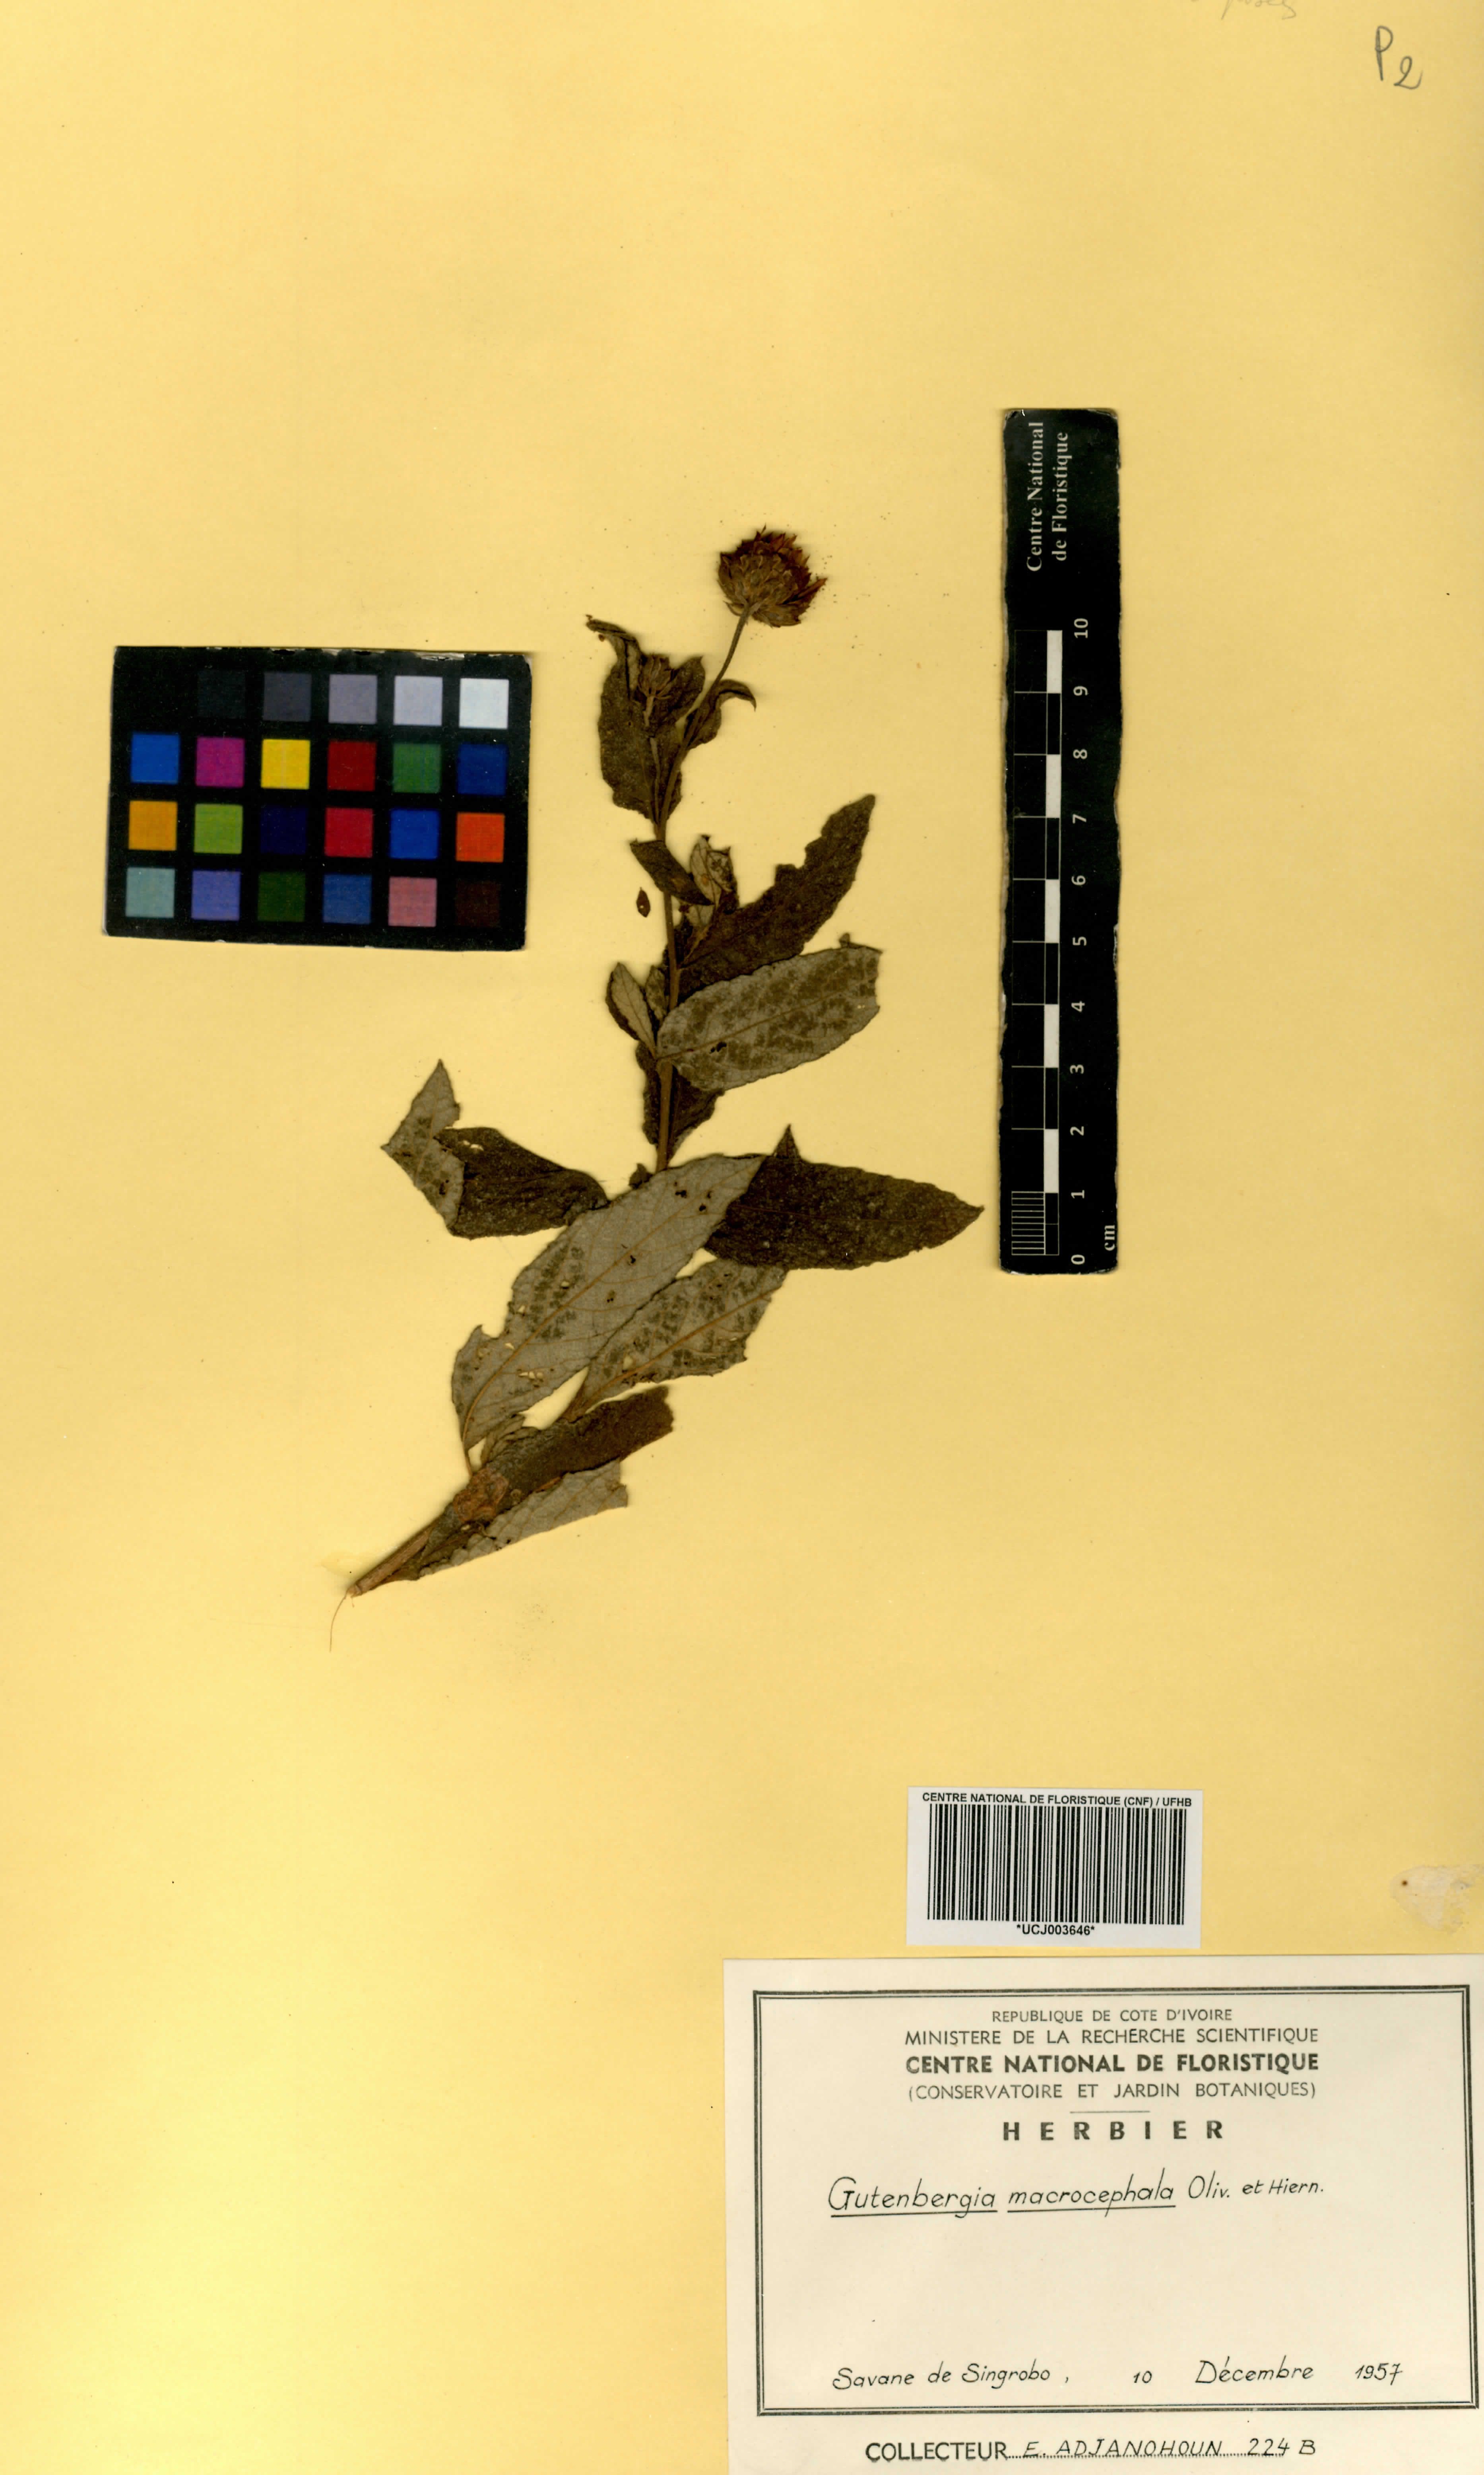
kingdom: Plantae
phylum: Tracheophyta
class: Magnoliopsida
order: Asterales
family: Asteraceae
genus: Kinghamia
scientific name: Kinghamia macrocephala
